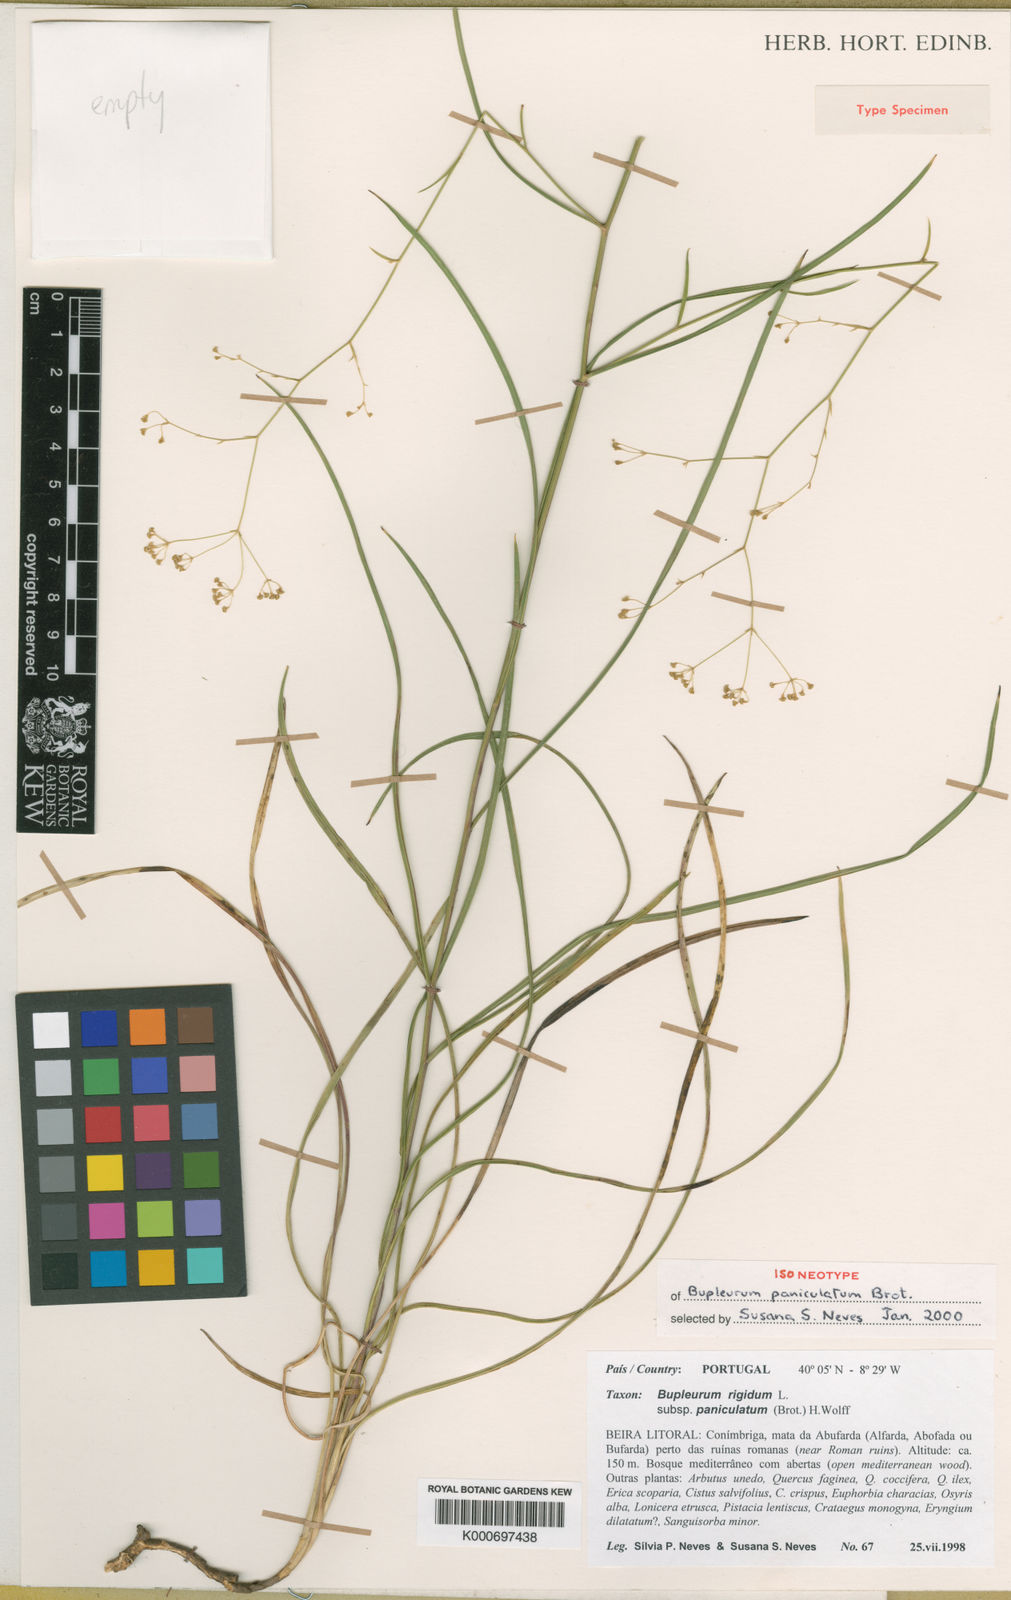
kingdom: Plantae
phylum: Tracheophyta
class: Magnoliopsida
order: Apiales
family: Apiaceae
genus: Bupleurum
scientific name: Bupleurum rigidum
